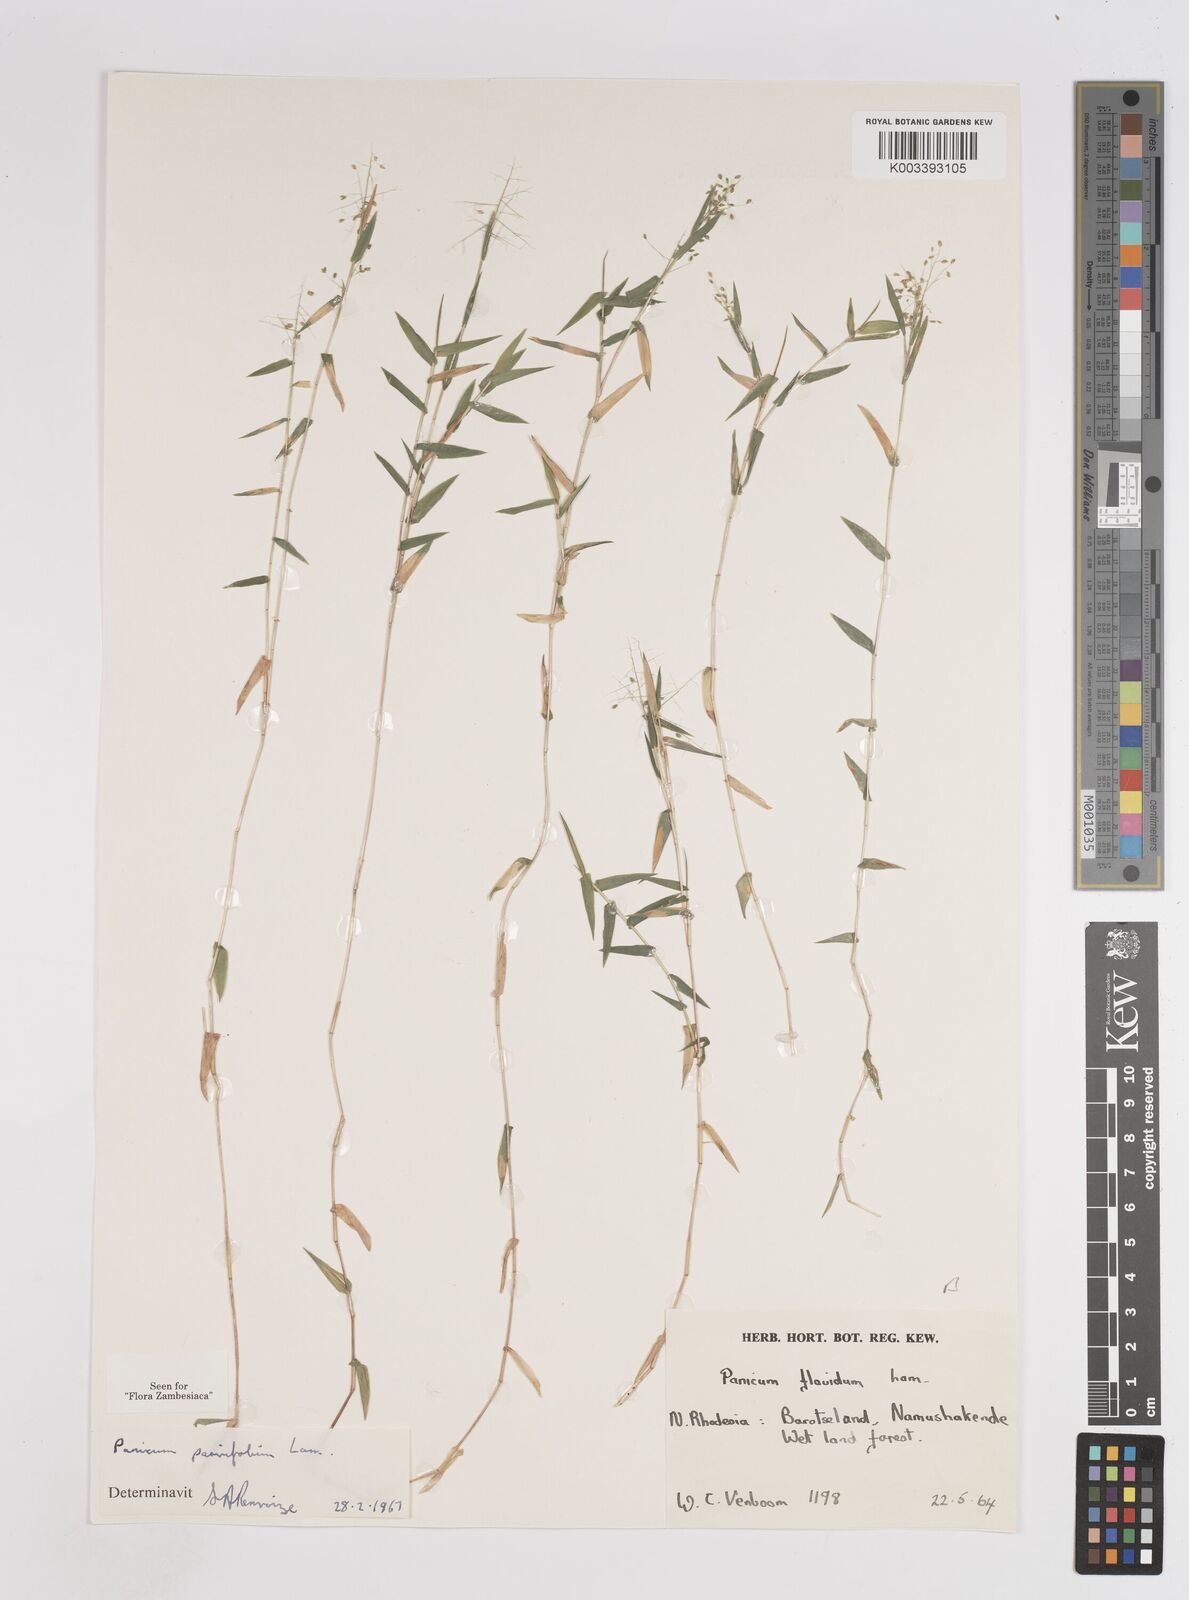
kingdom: Plantae
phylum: Tracheophyta
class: Liliopsida
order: Poales
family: Poaceae
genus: Trichanthecium
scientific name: Trichanthecium parvifolium
